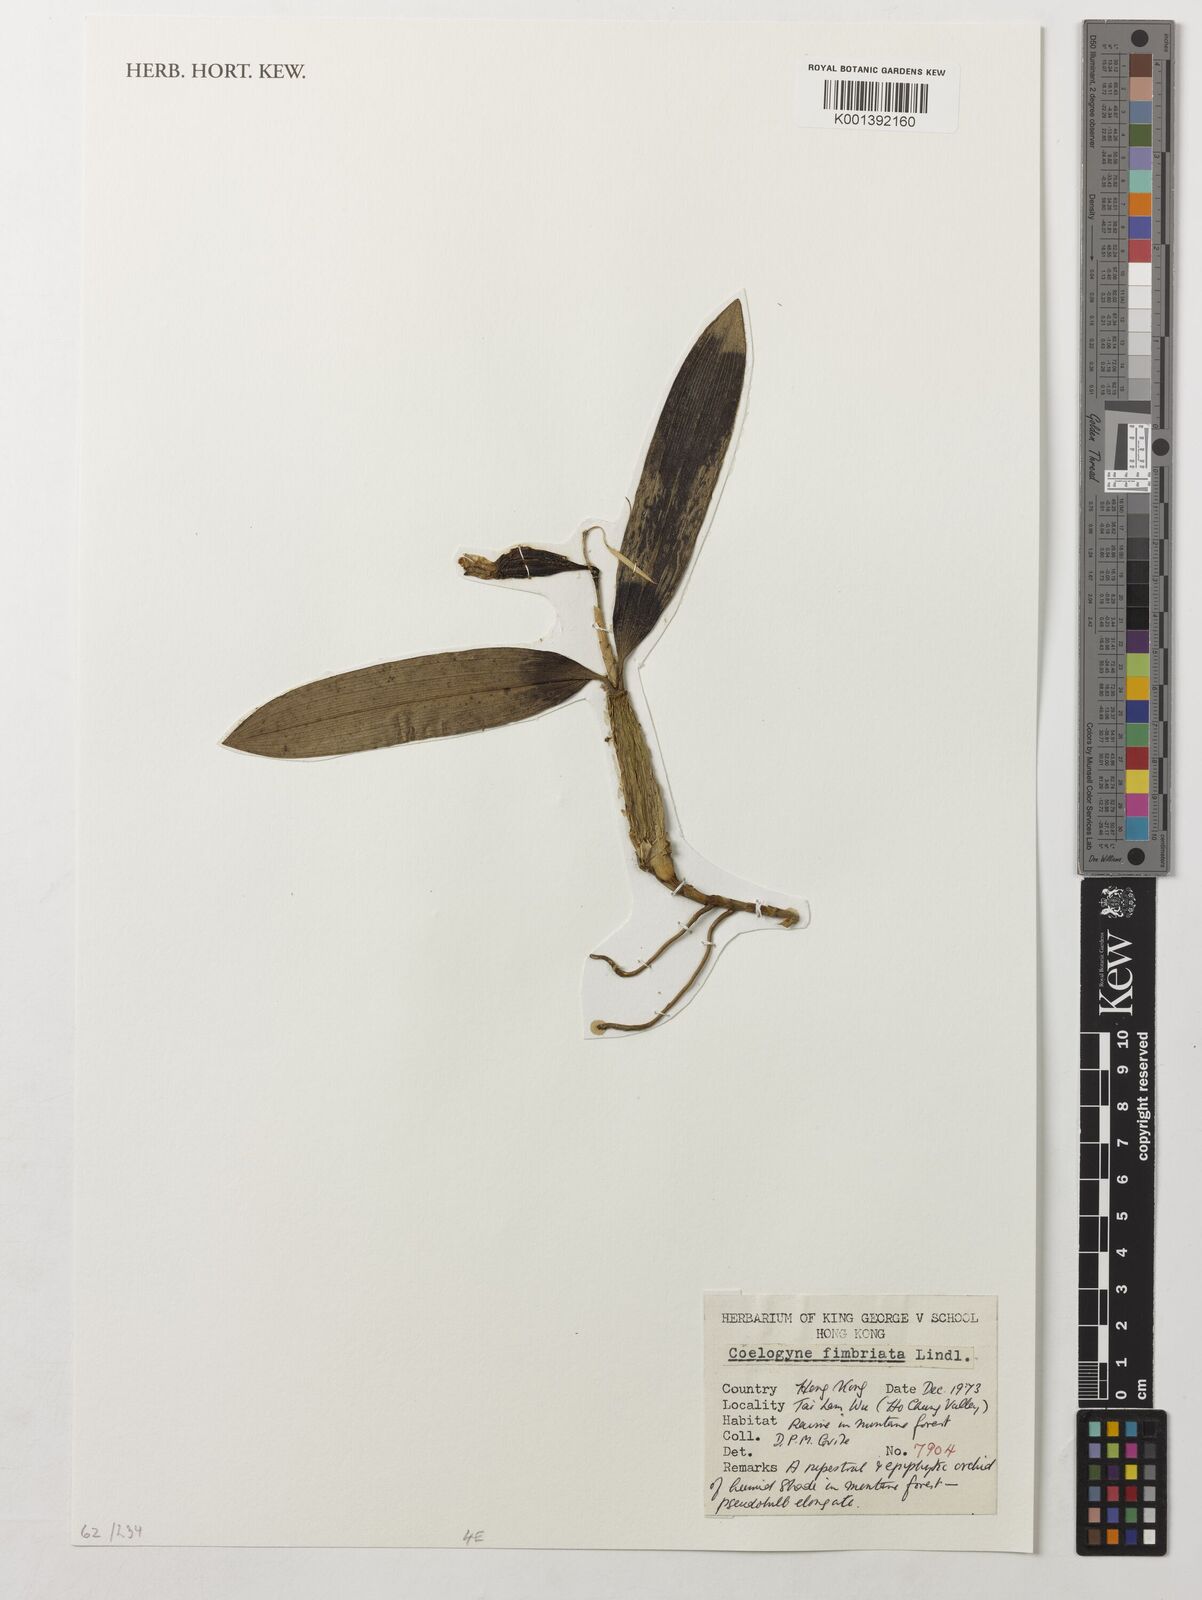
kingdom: Plantae
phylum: Tracheophyta
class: Liliopsida
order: Asparagales
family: Orchidaceae
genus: Coelogyne
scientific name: Coelogyne fimbriata
